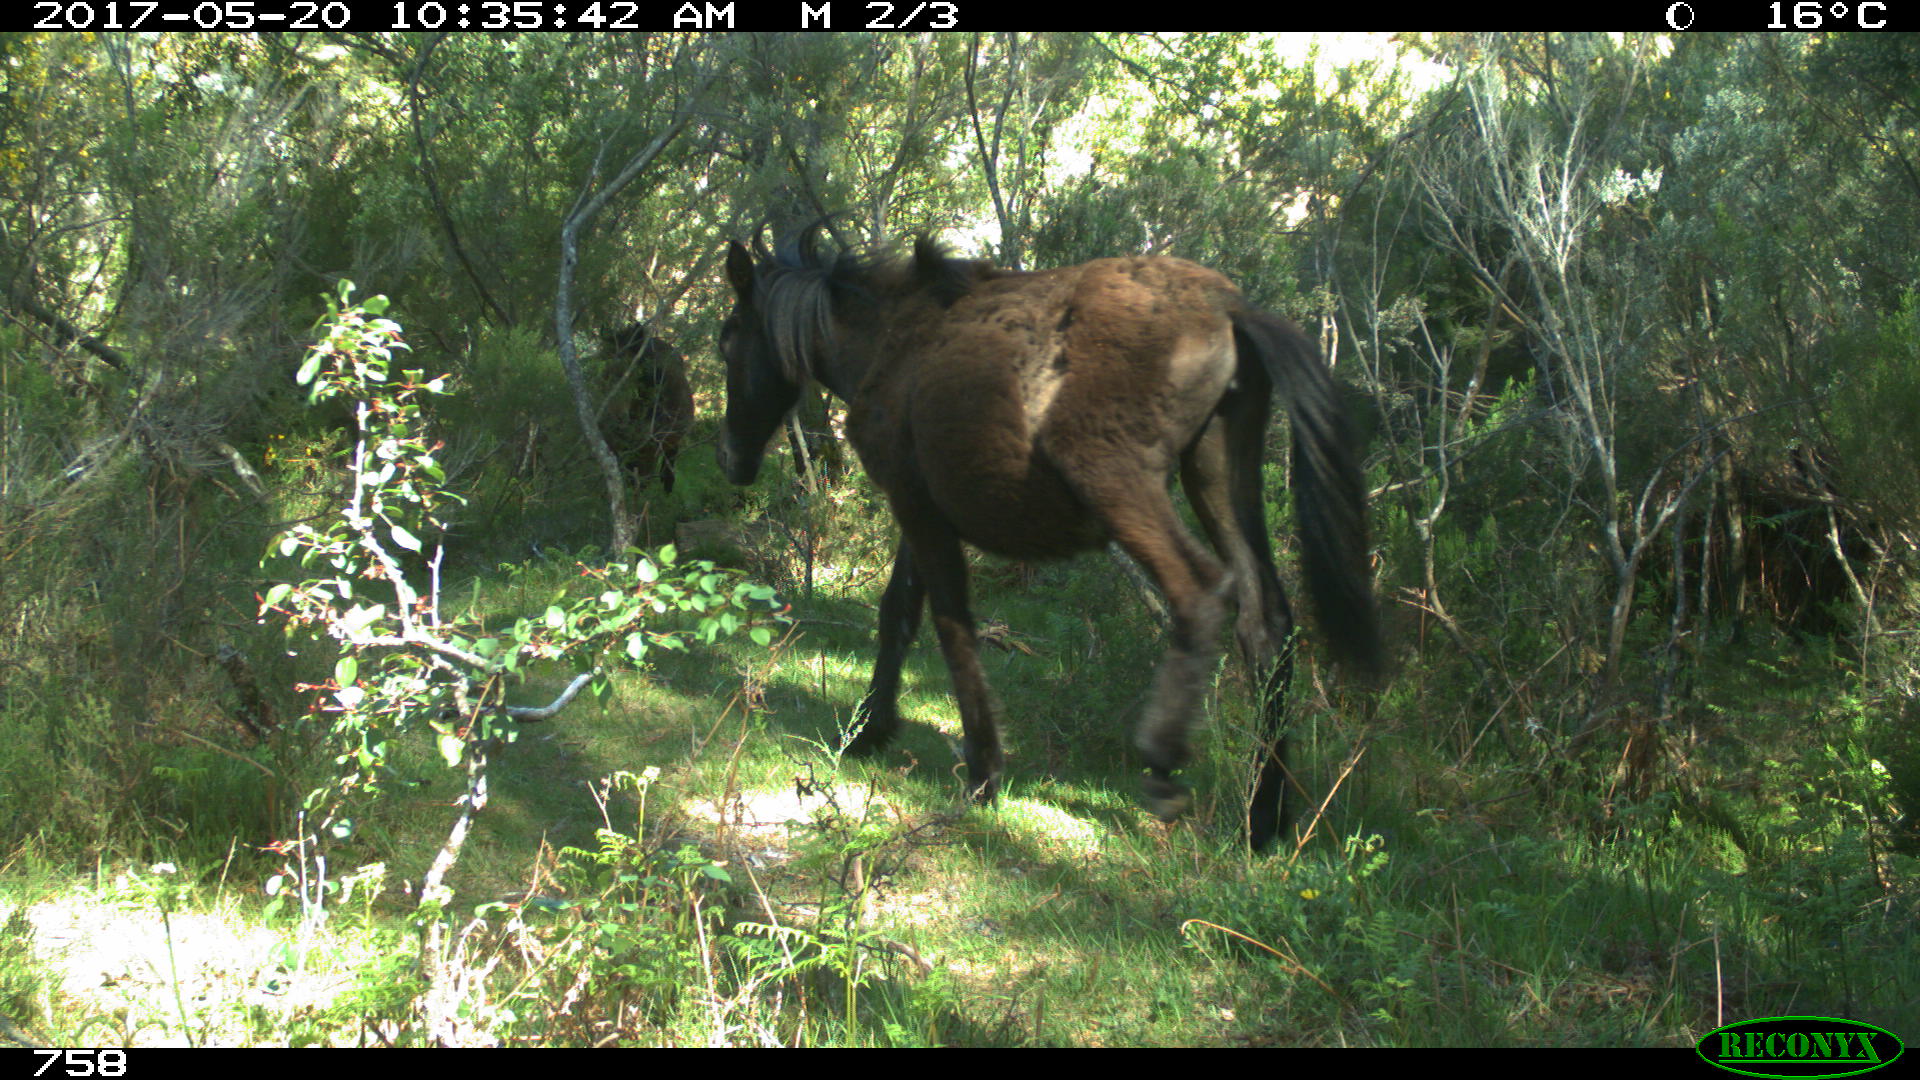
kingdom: Animalia
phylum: Chordata
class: Mammalia
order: Perissodactyla
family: Equidae
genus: Equus
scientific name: Equus caballus
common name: Horse
